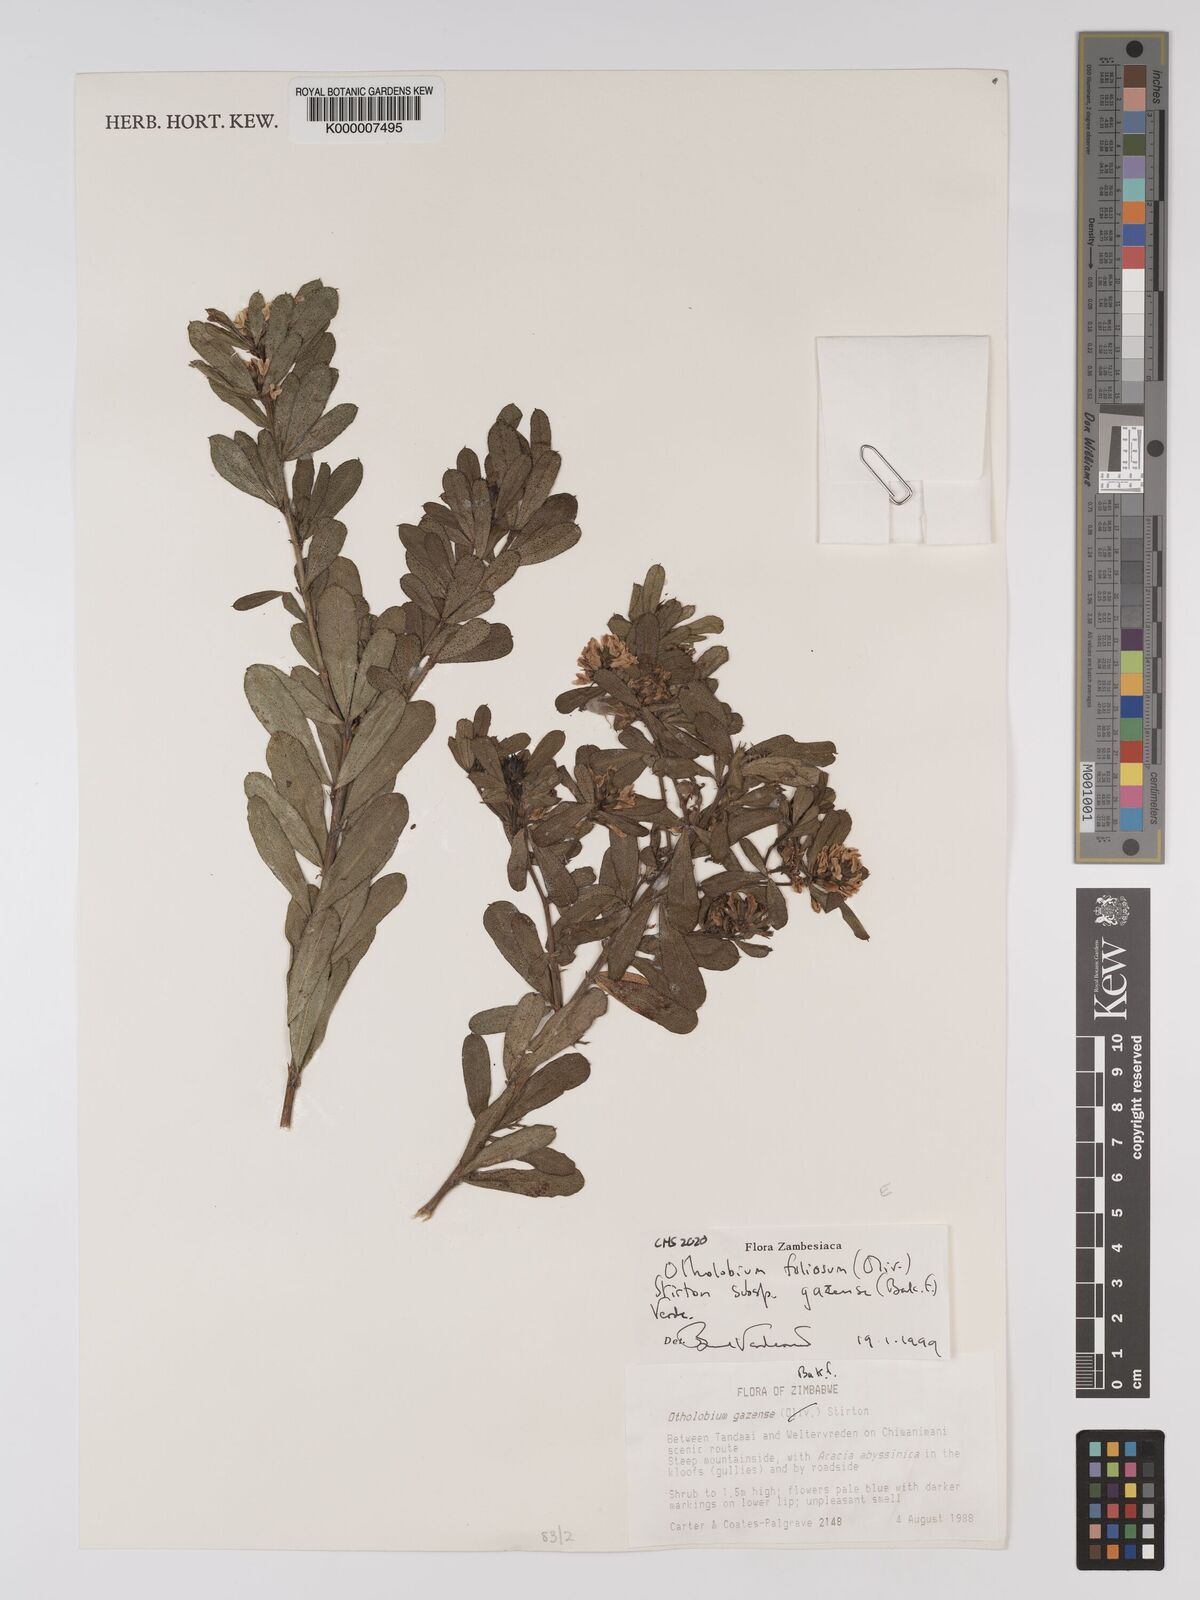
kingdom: Plantae
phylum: Tracheophyta
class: Magnoliopsida
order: Fabales
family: Fabaceae
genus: Psoralea
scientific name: Psoralea foliosa
